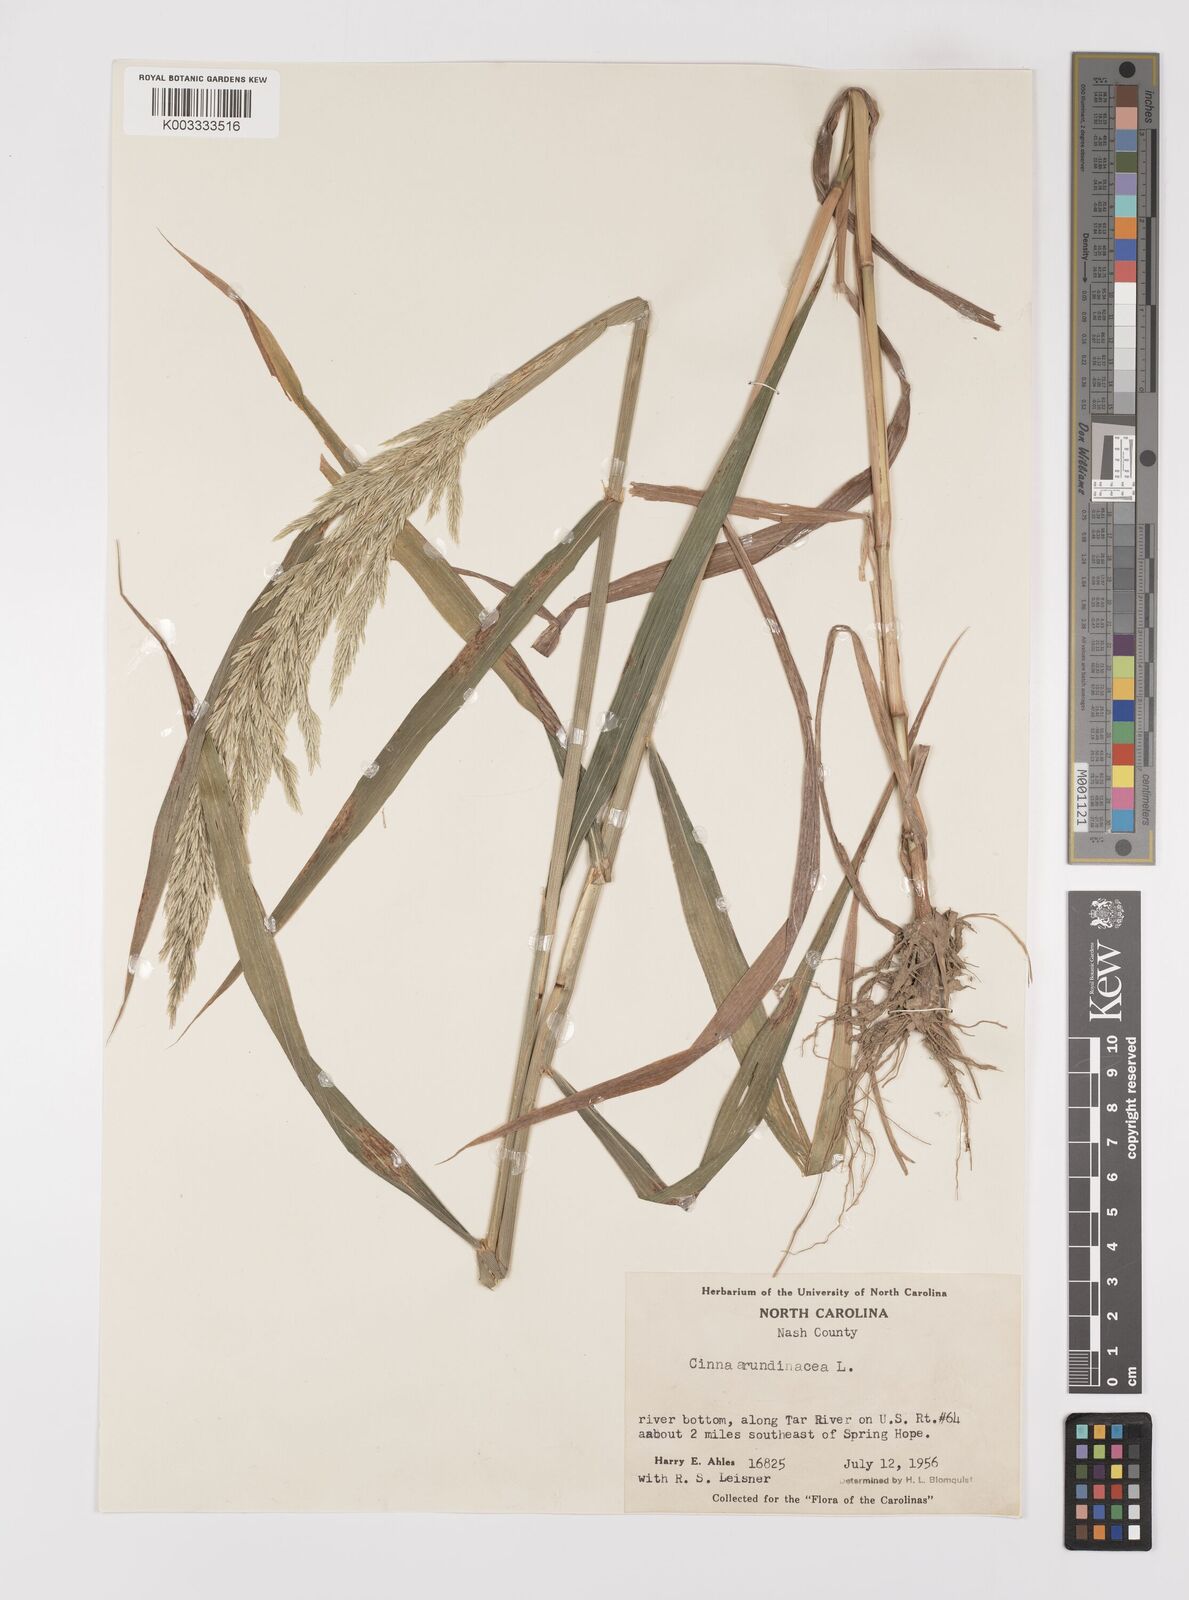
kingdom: Plantae
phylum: Tracheophyta
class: Liliopsida
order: Poales
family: Poaceae
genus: Cinna
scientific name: Cinna
